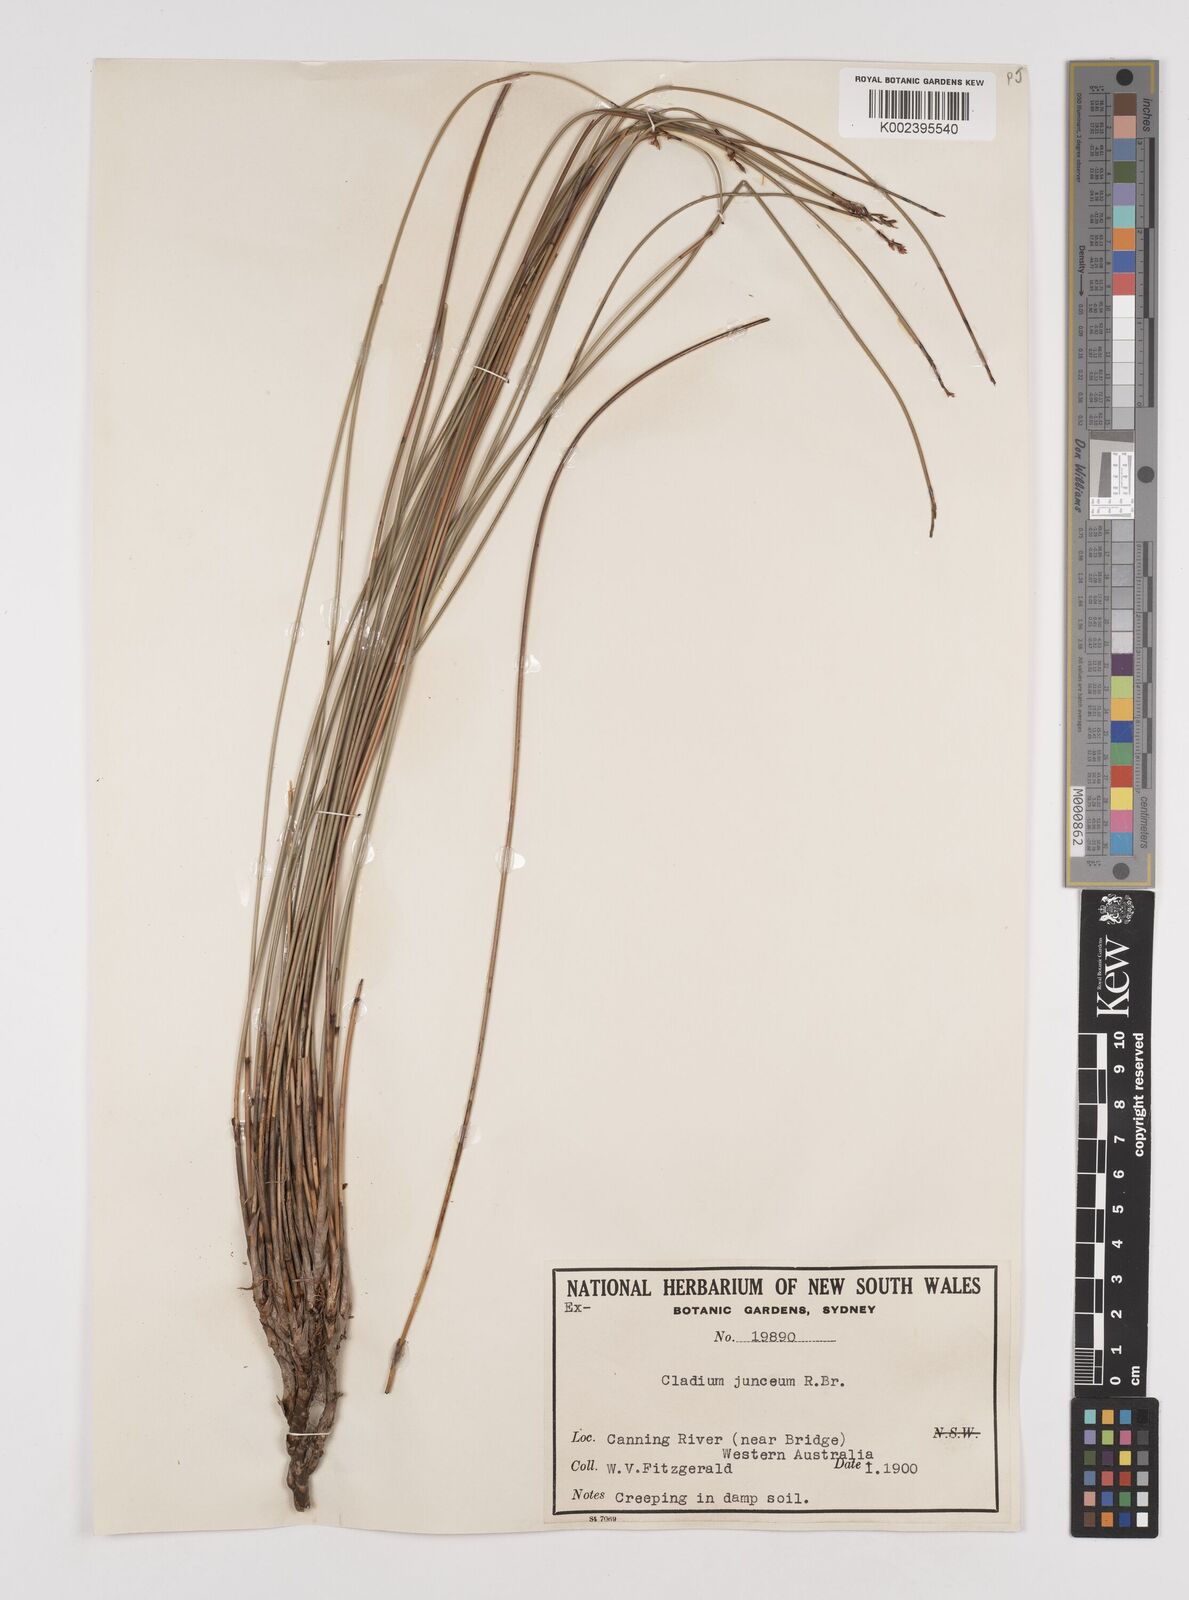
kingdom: Plantae
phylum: Tracheophyta
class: Liliopsida
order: Poales
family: Cyperaceae
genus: Machaerina
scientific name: Machaerina juncea
